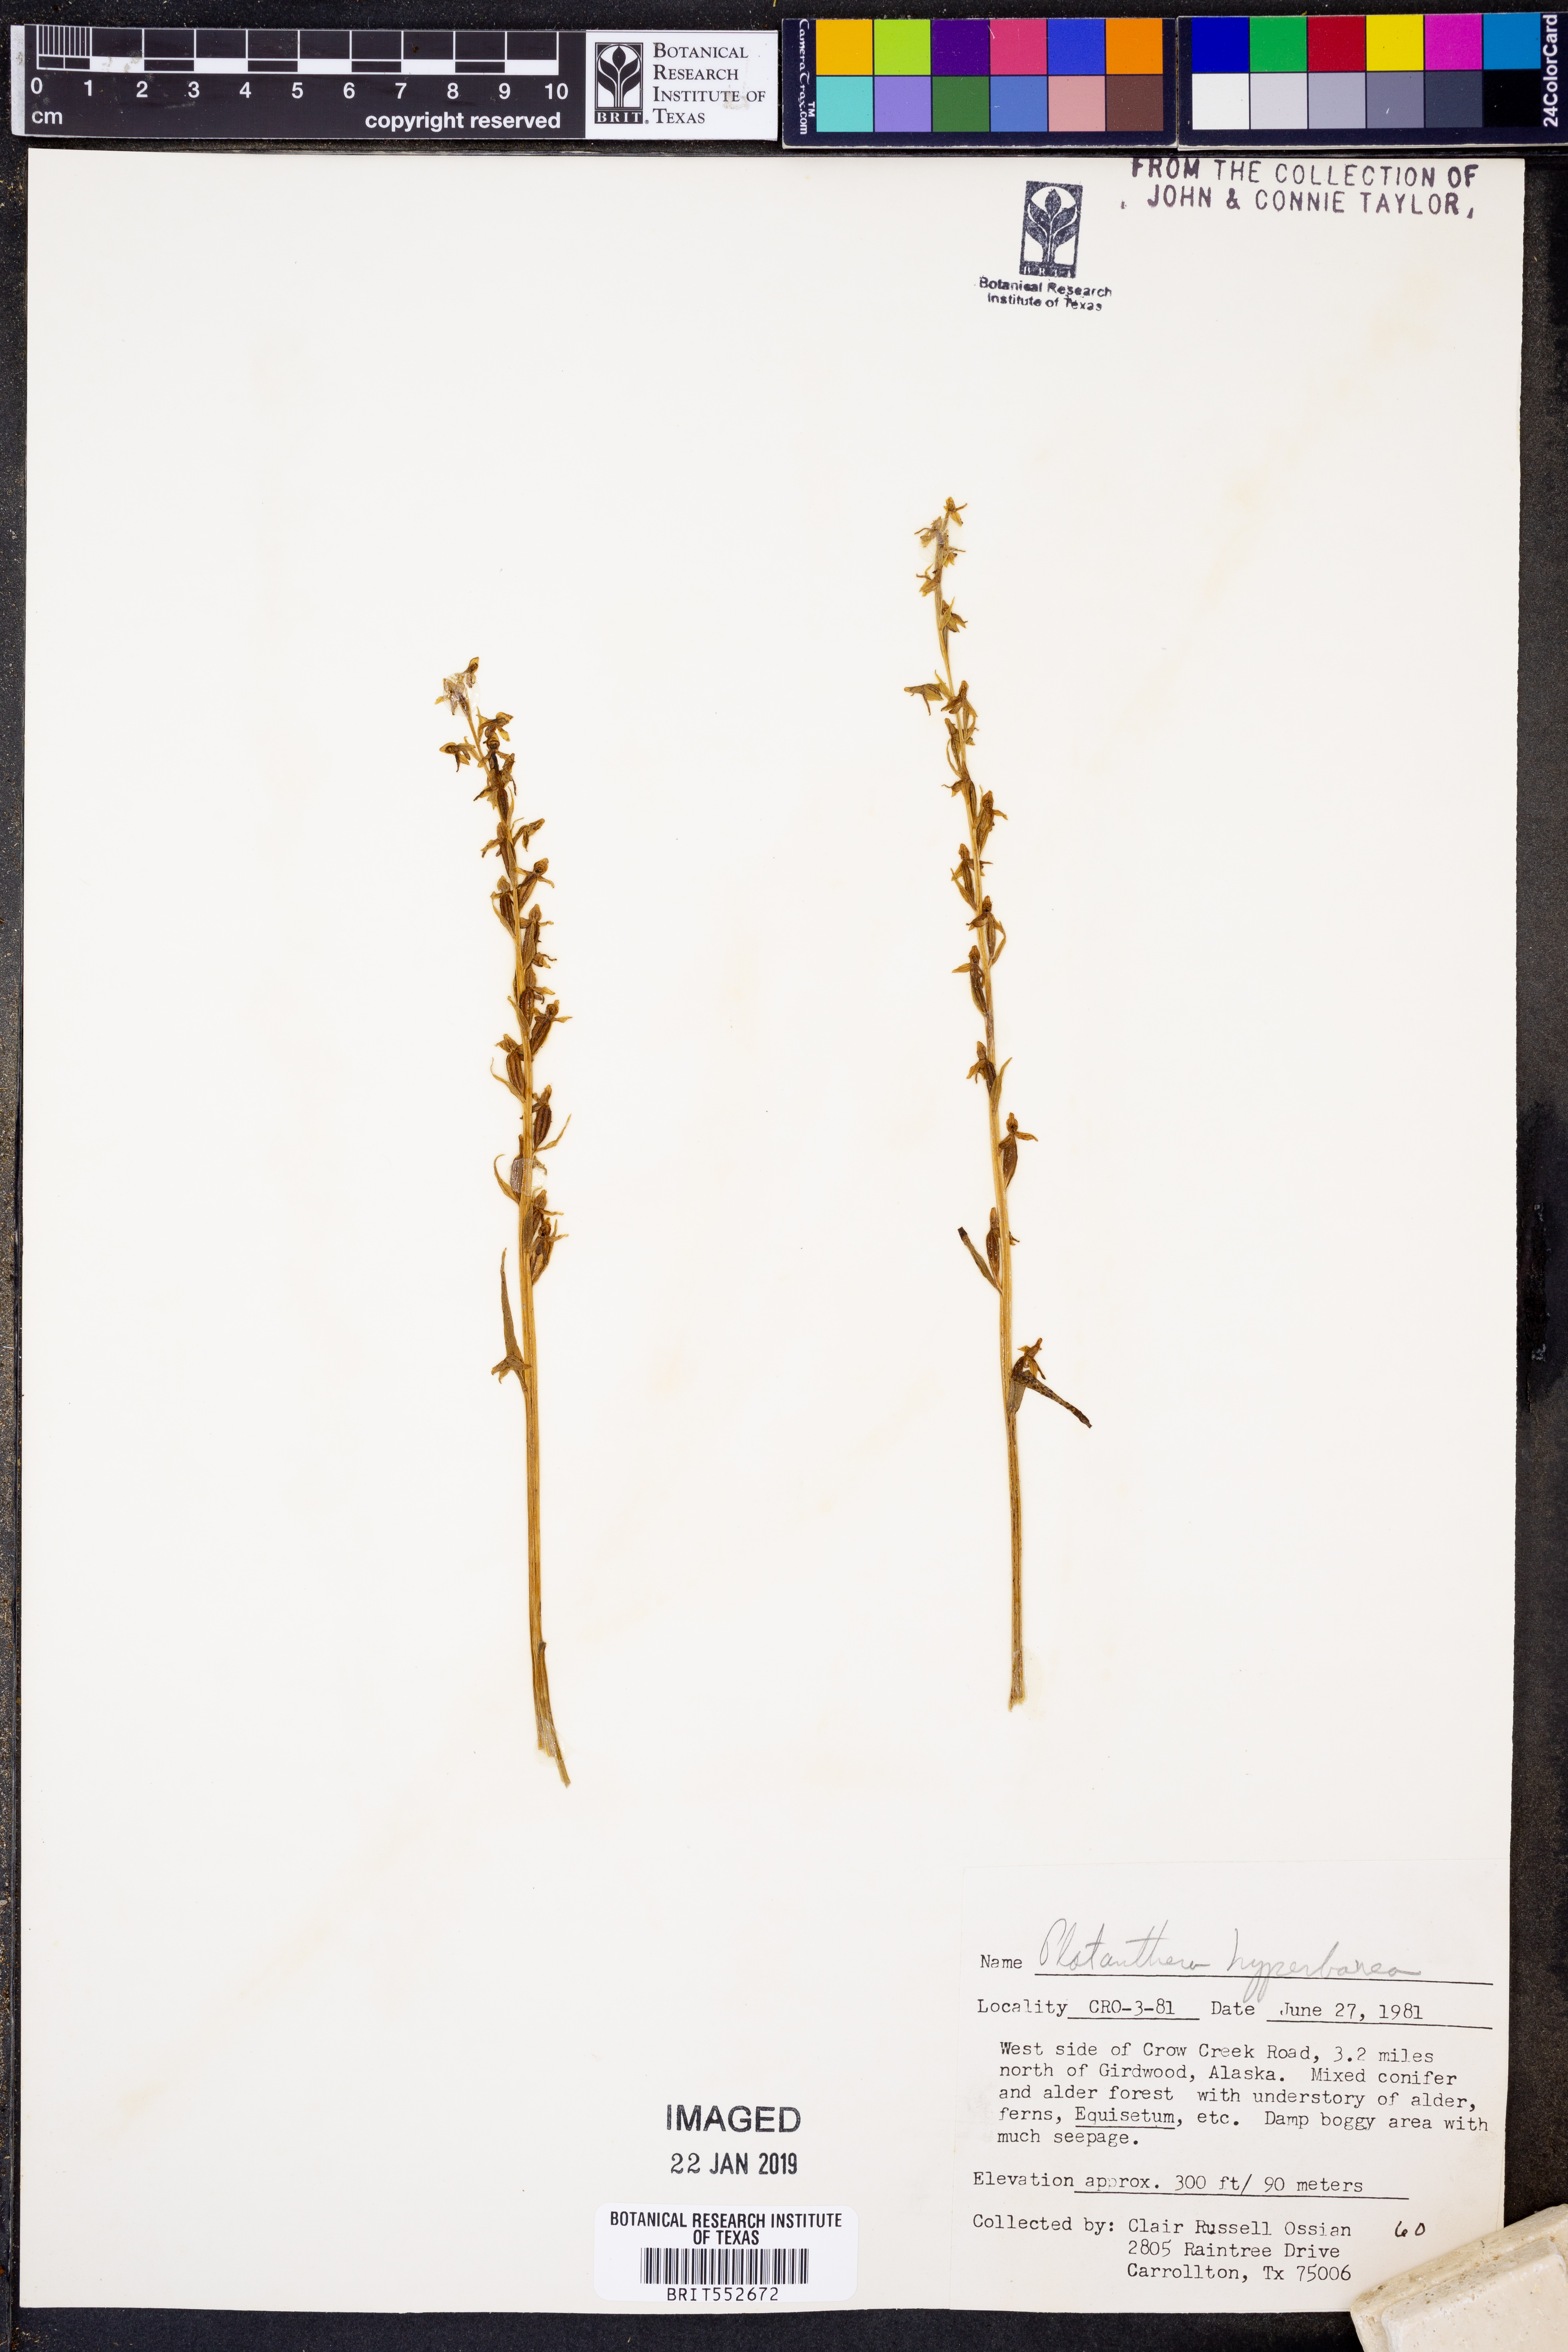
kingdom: Plantae
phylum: Tracheophyta
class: Liliopsida
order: Asparagales
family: Orchidaceae
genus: Platanthera
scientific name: Platanthera hyperborea
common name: Northern green orchid
